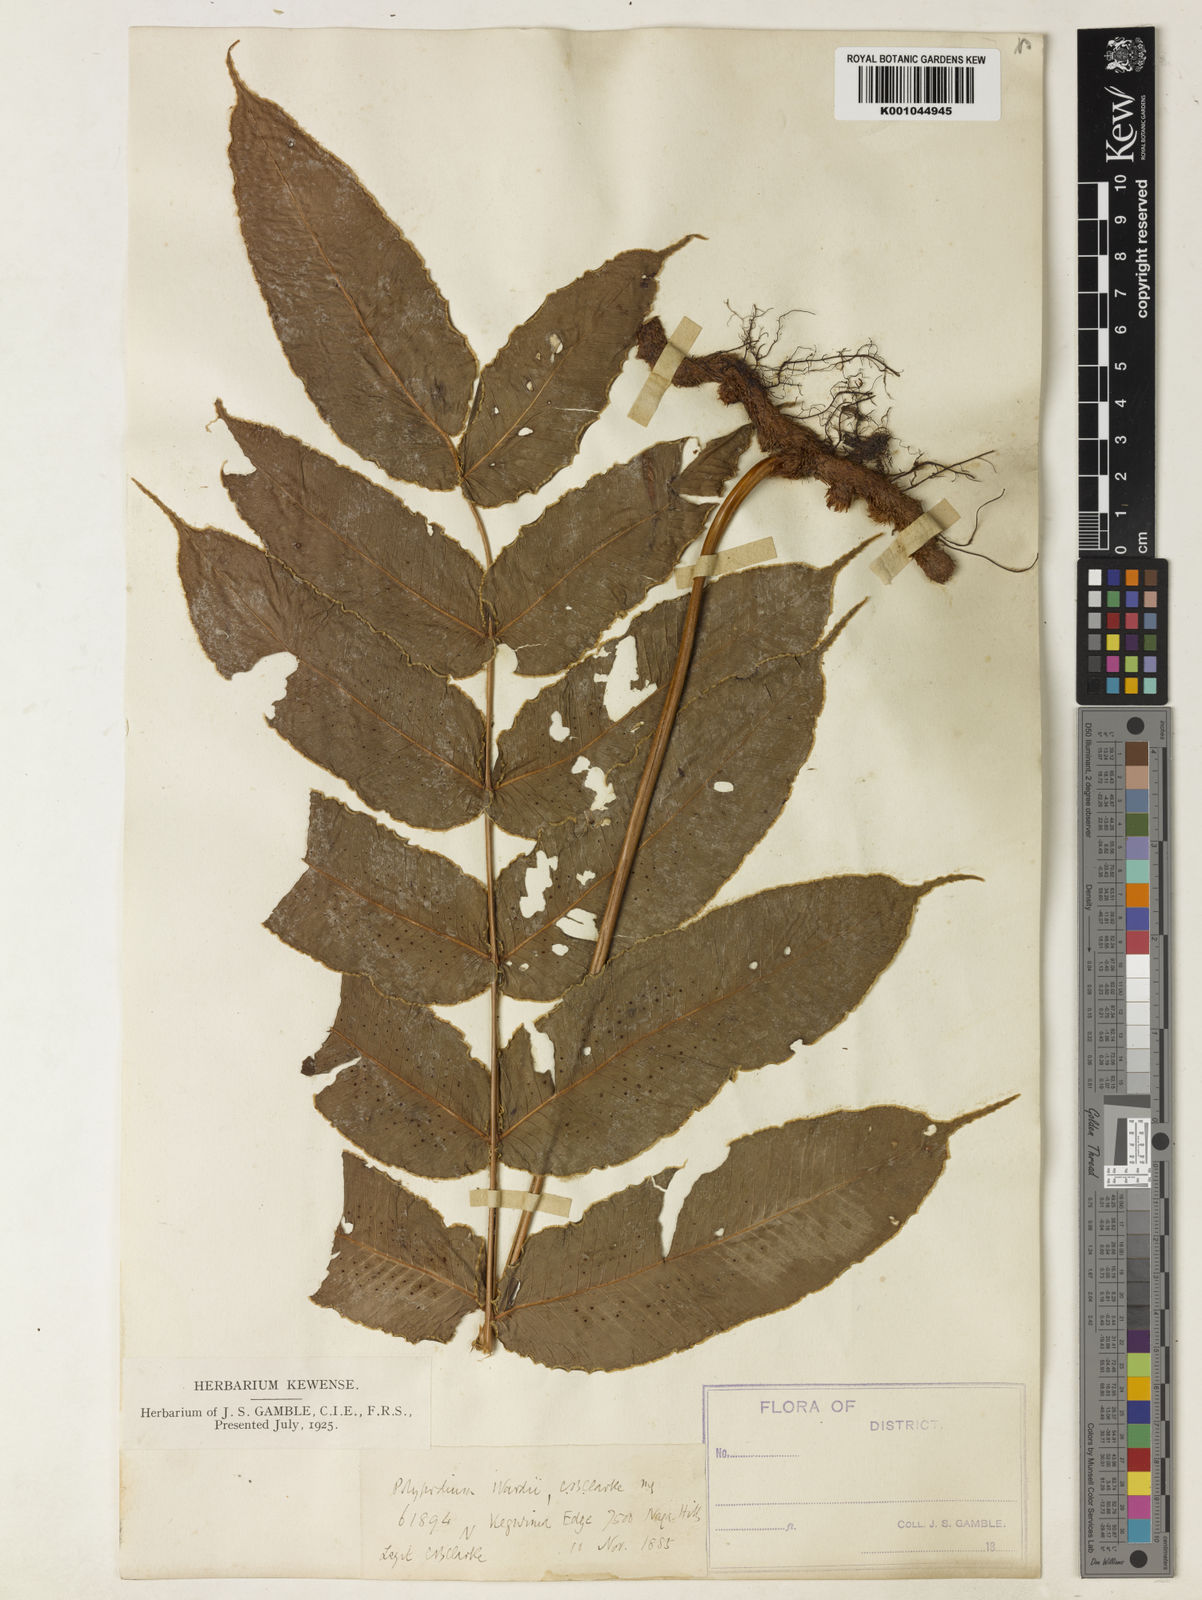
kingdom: Plantae
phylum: Tracheophyta
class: Polypodiopsida
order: Polypodiales
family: Polypodiaceae
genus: Selliguea
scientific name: Selliguea wardii
